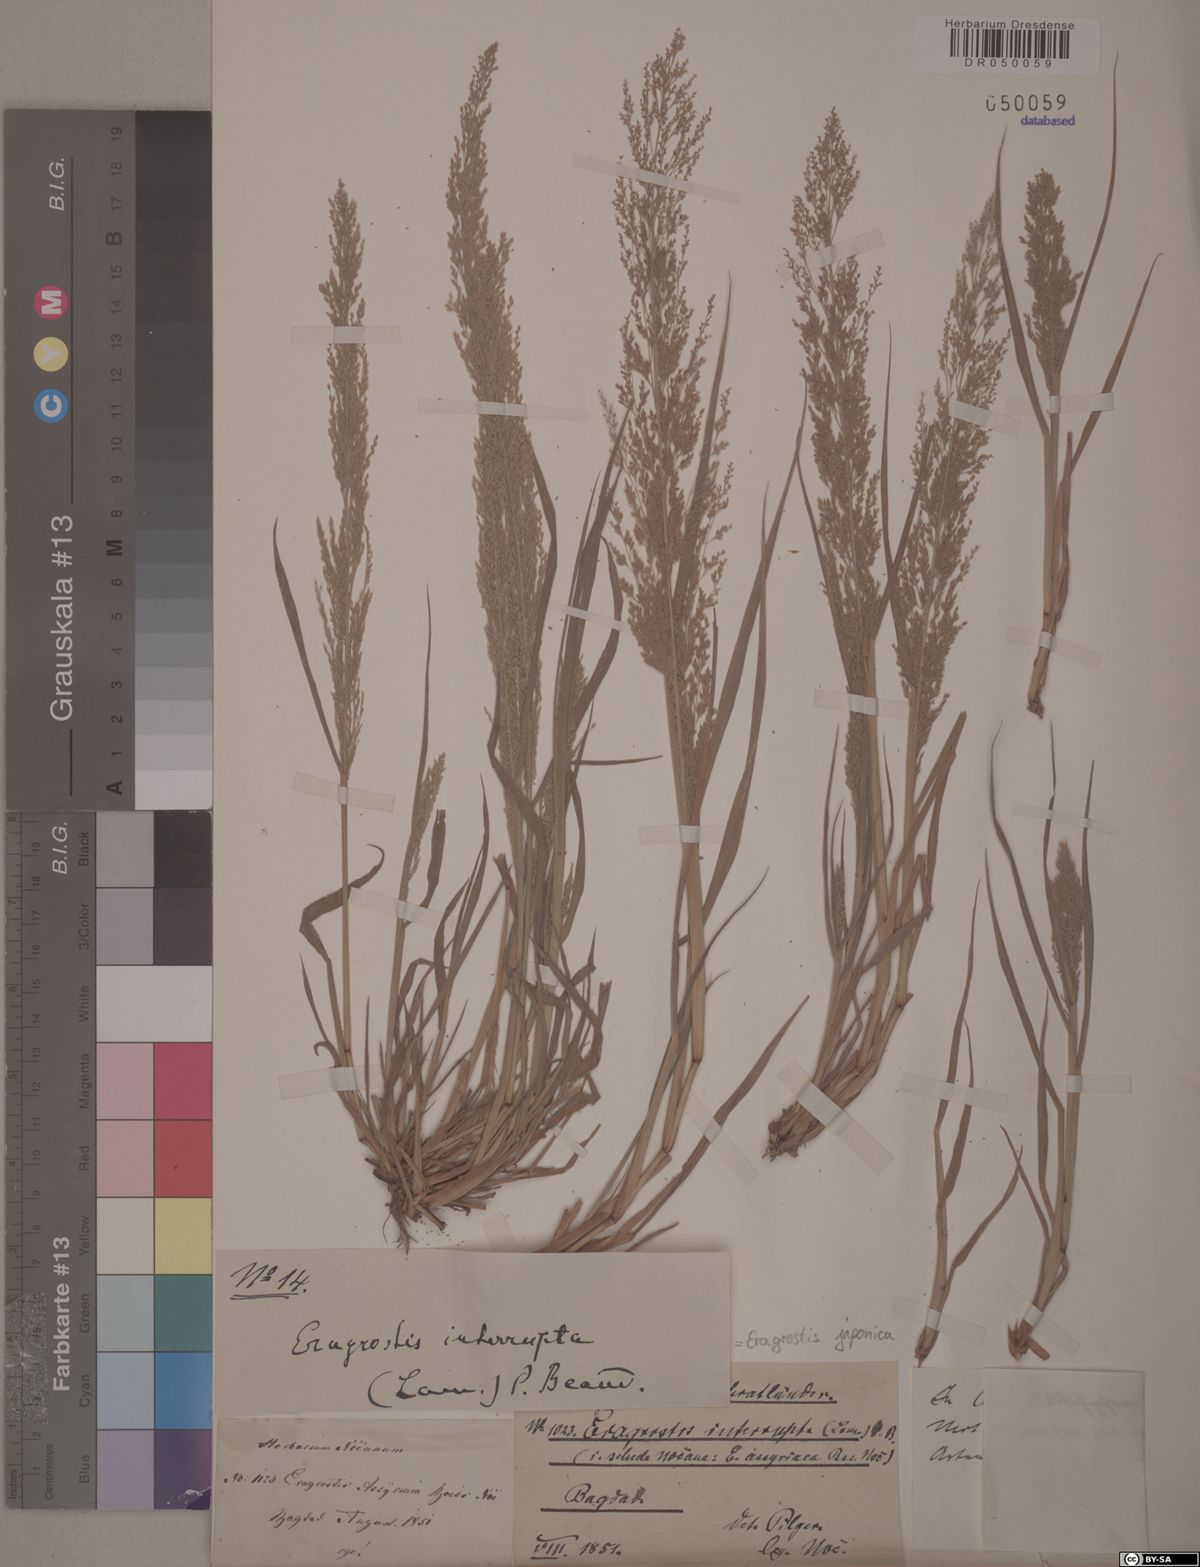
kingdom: Plantae
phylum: Tracheophyta
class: Liliopsida
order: Poales
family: Poaceae
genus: Eragrostis
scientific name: Eragrostis assyriaca
